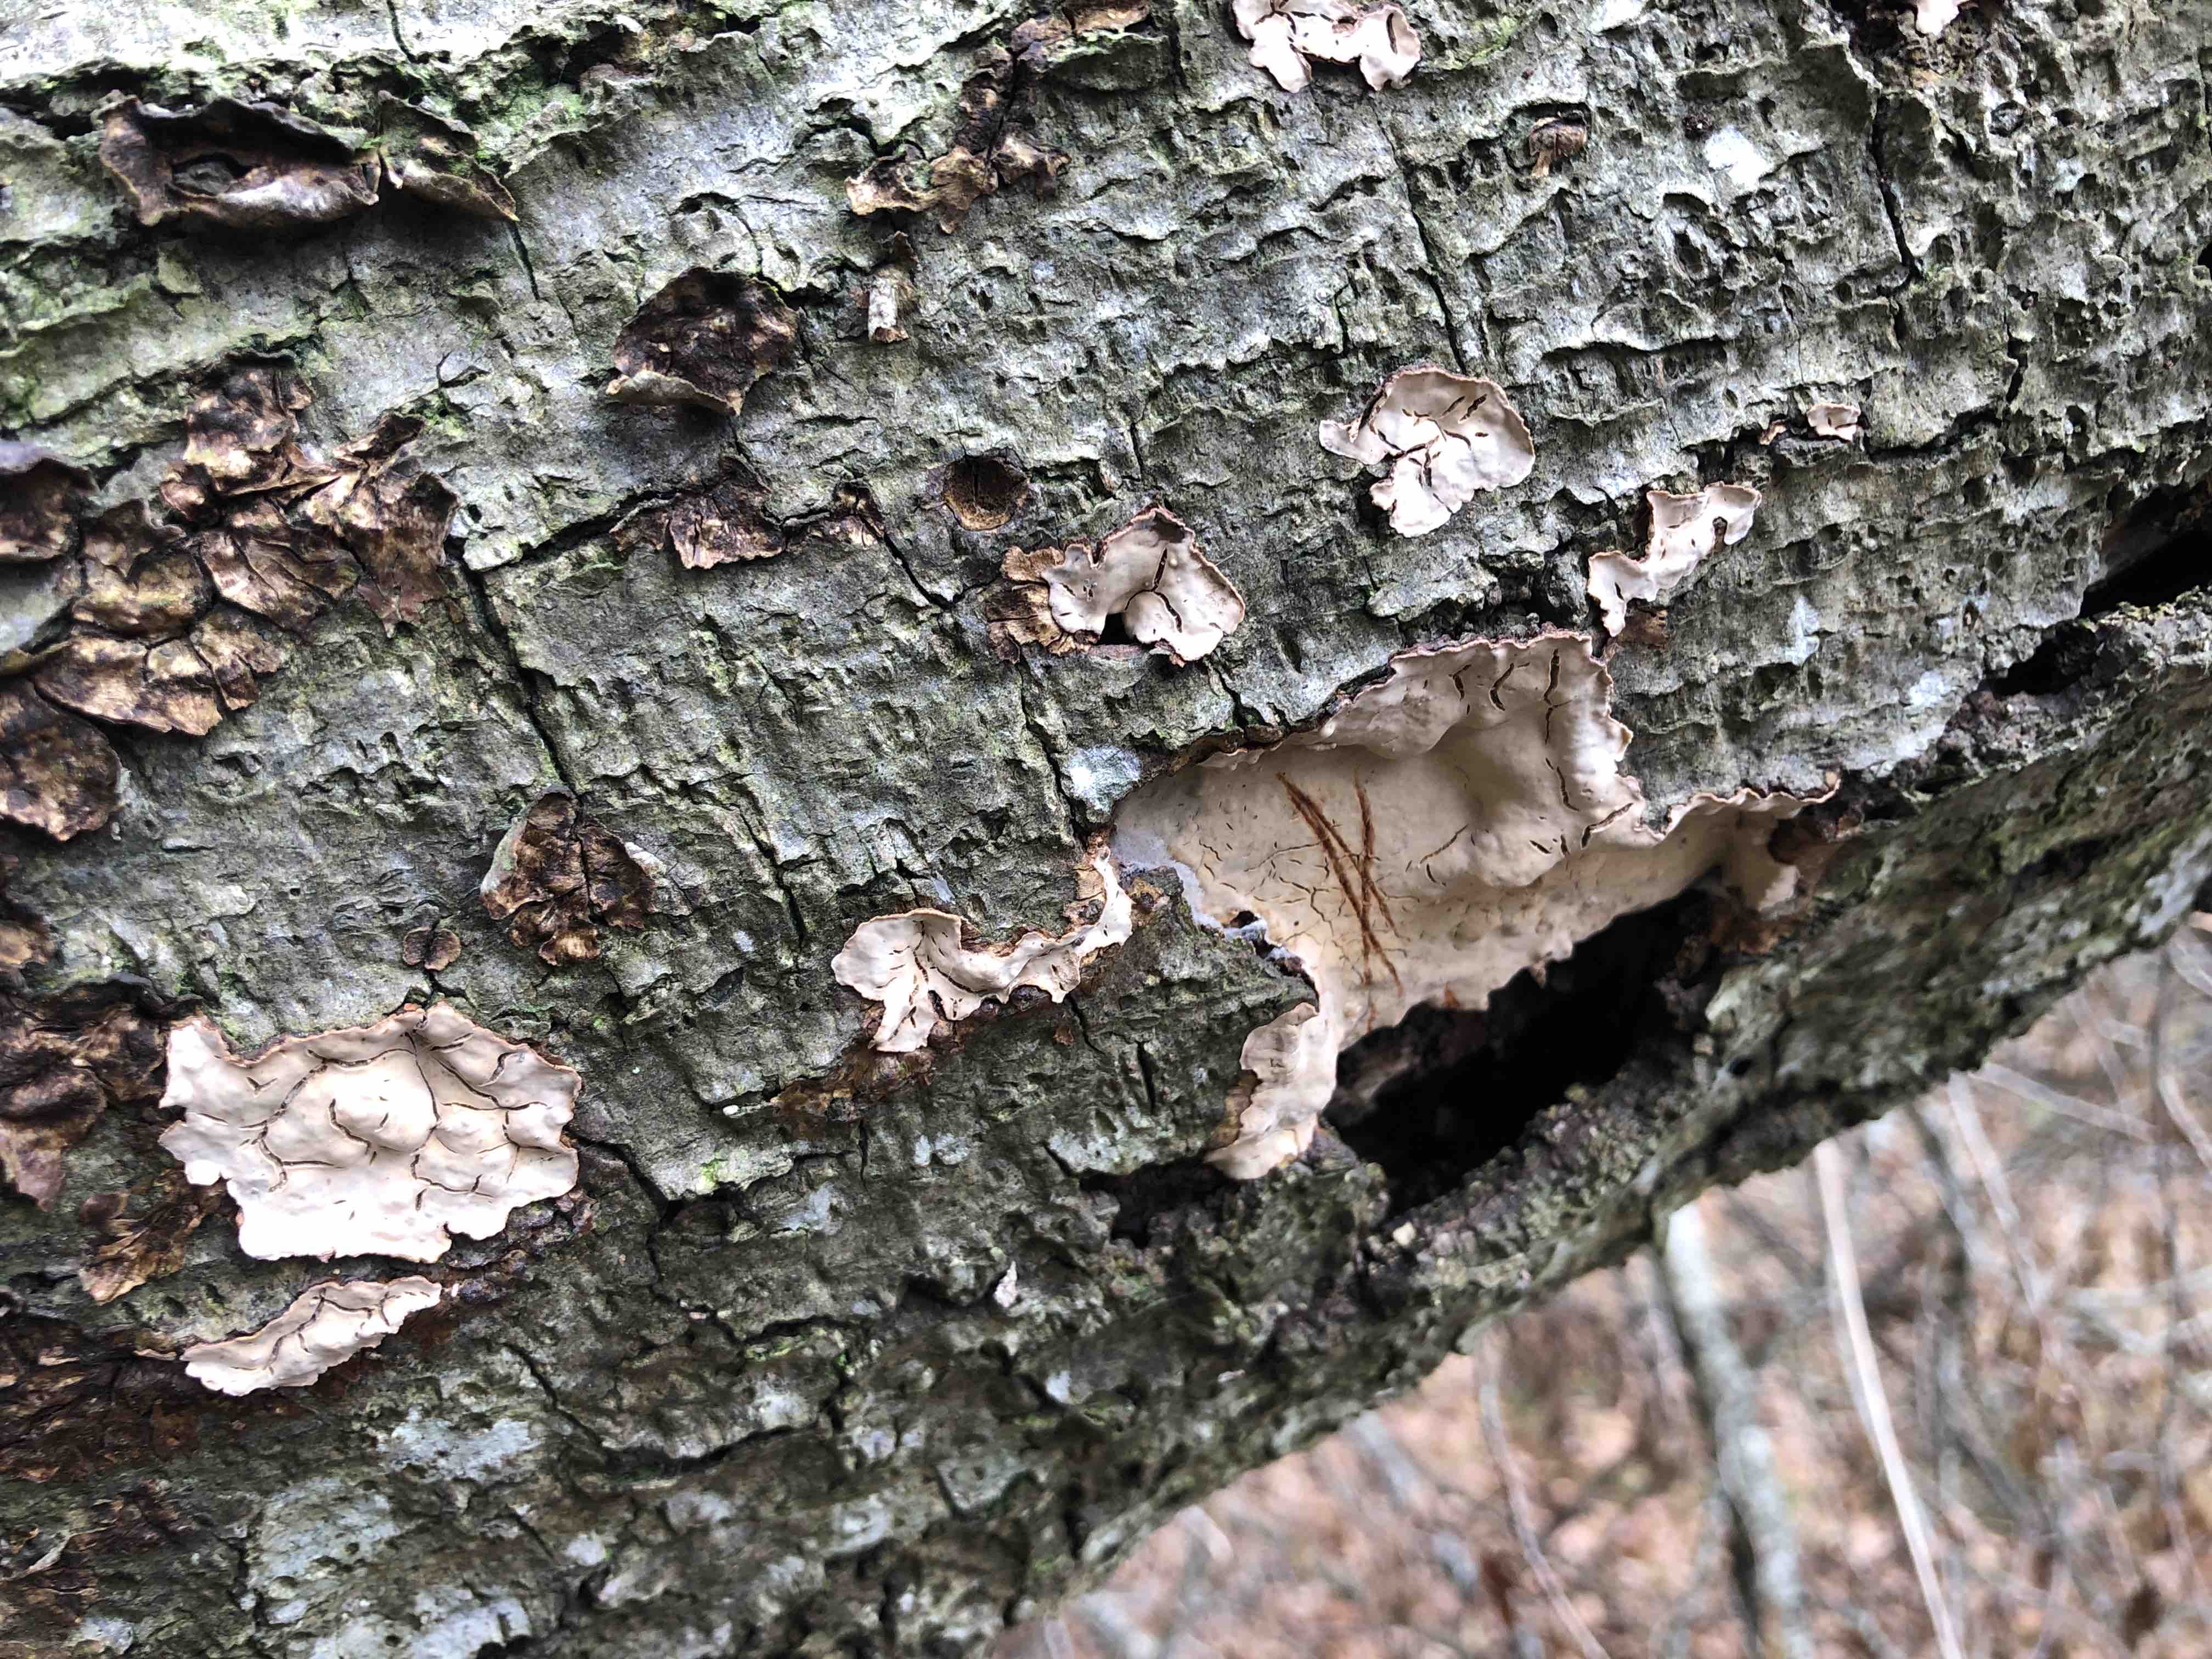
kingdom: Fungi
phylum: Basidiomycota
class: Agaricomycetes
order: Russulales
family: Stereaceae
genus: Stereum
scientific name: Stereum rugosum
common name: rynket lædersvamp
